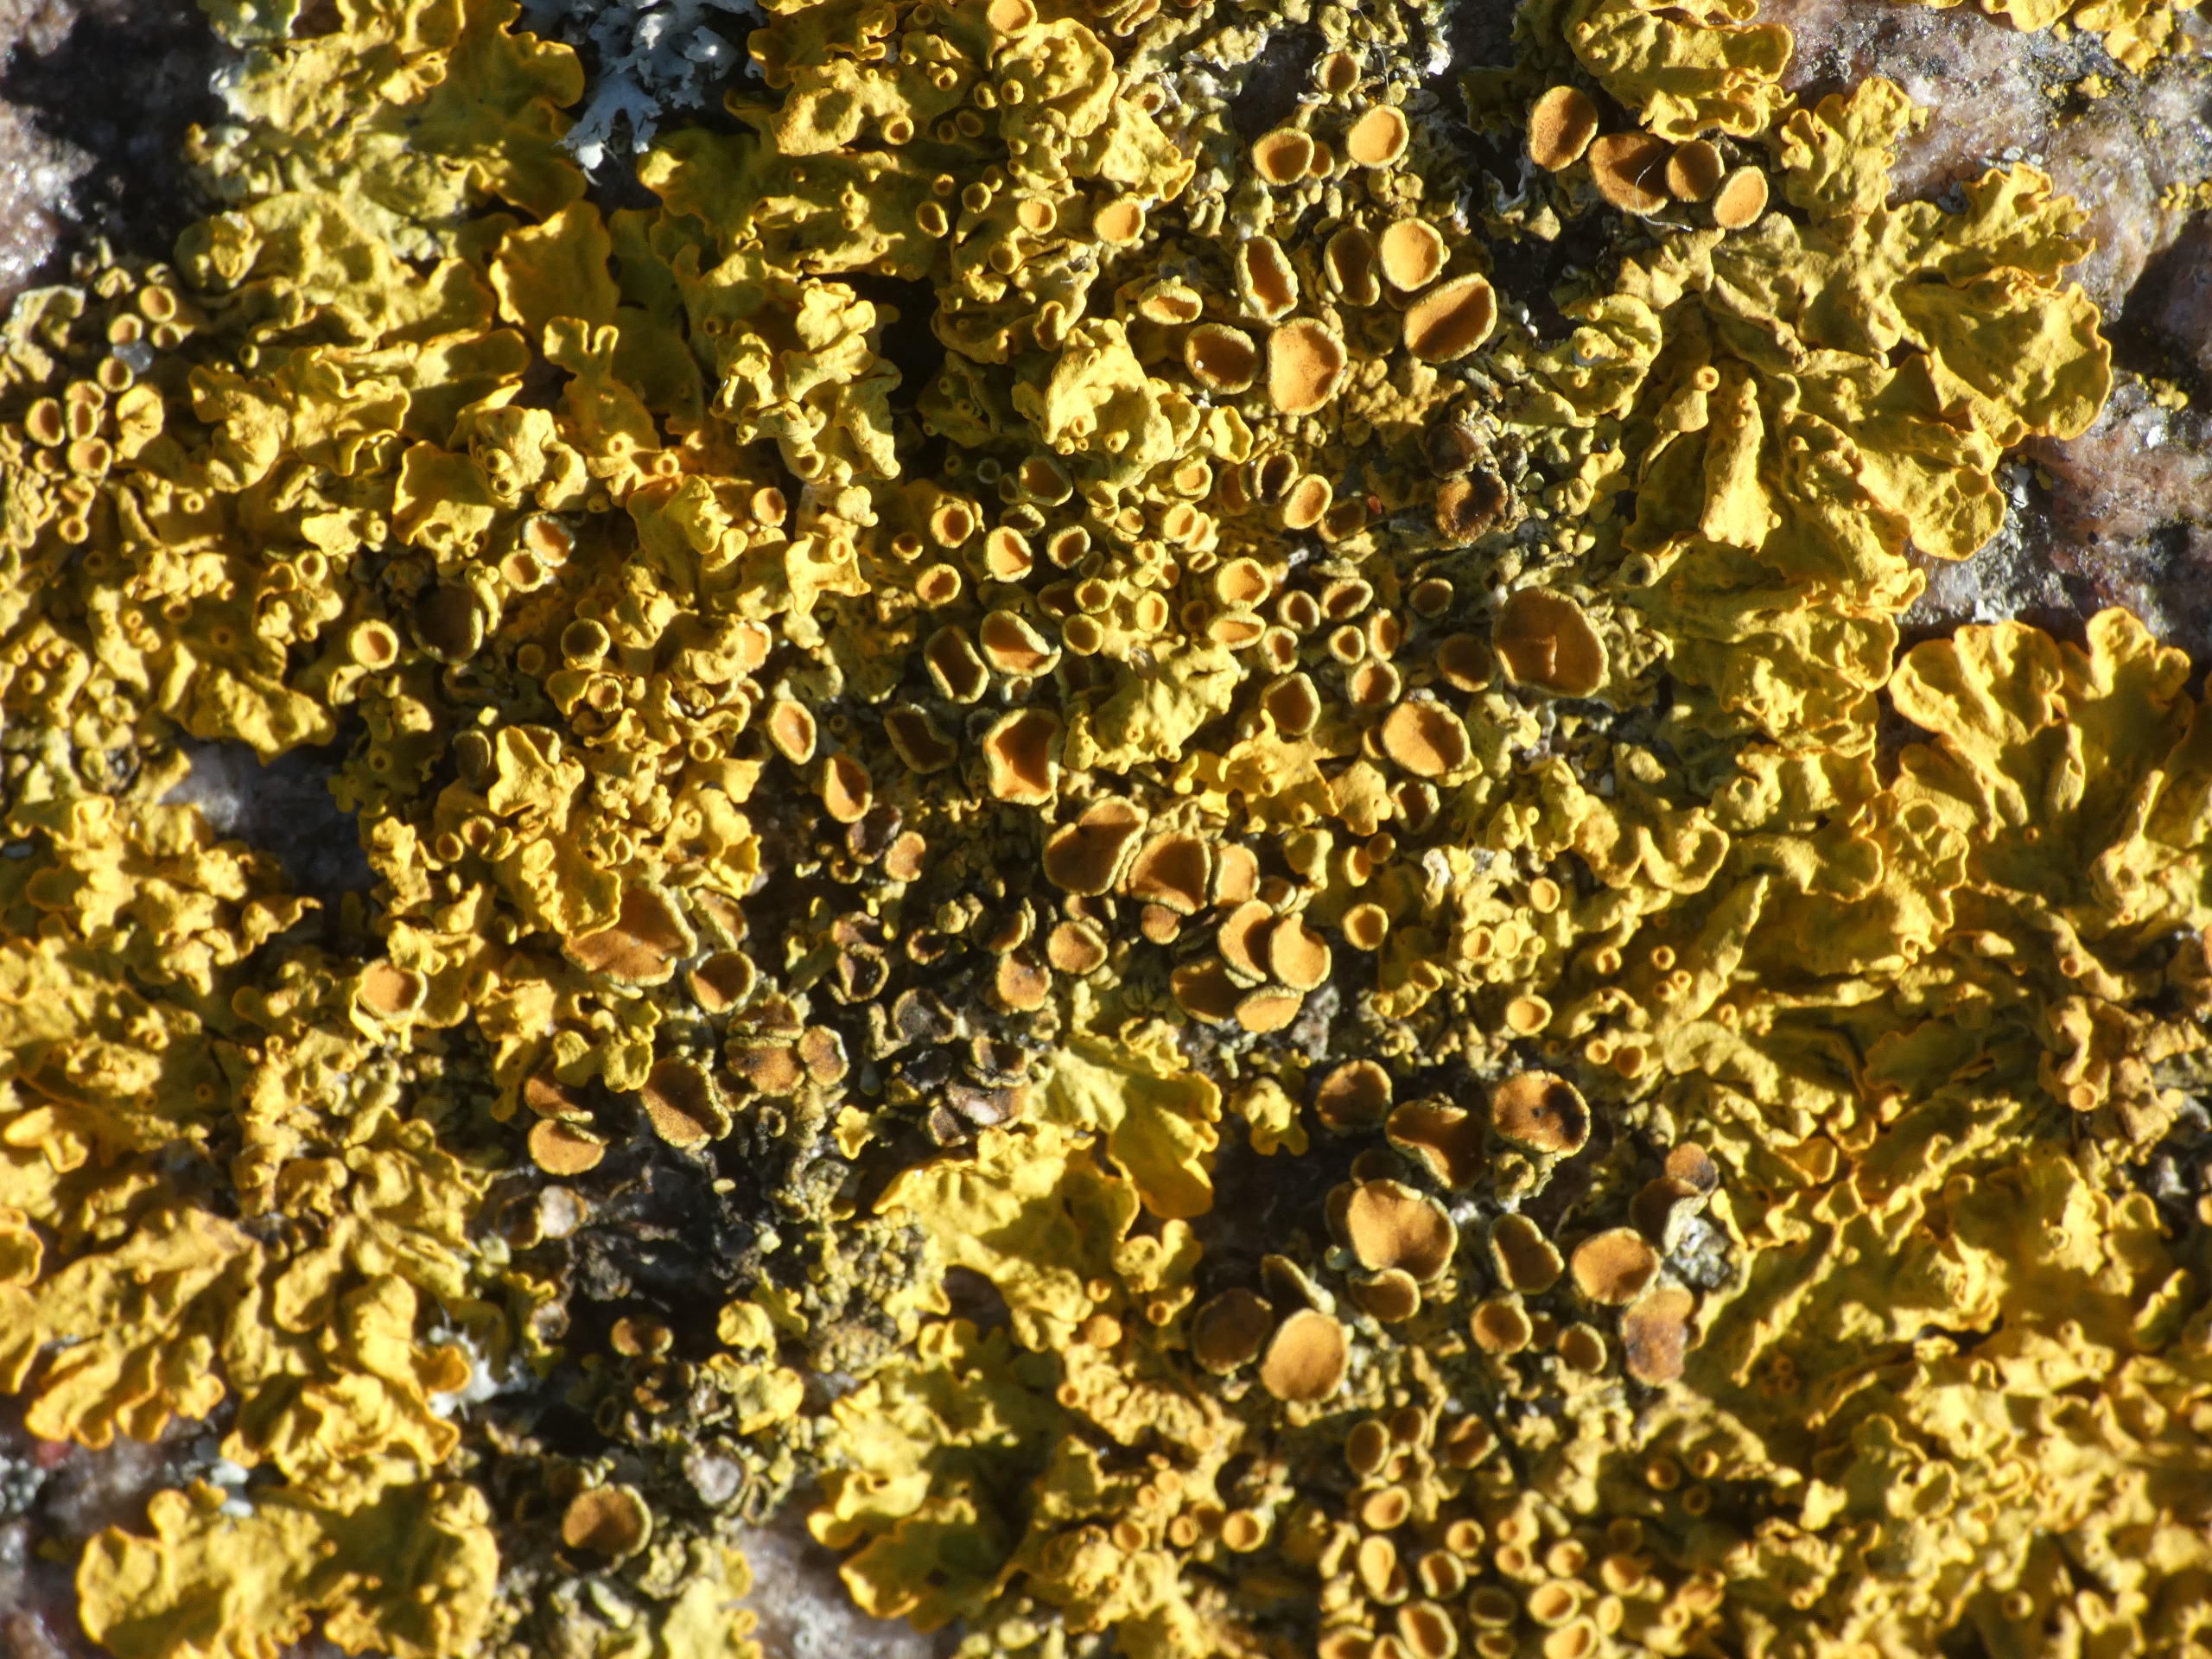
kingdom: Fungi
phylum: Ascomycota
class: Lecanoromycetes
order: Teloschistales
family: Teloschistaceae
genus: Xanthoria
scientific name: Xanthoria parietina
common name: Almindelig væggelav
